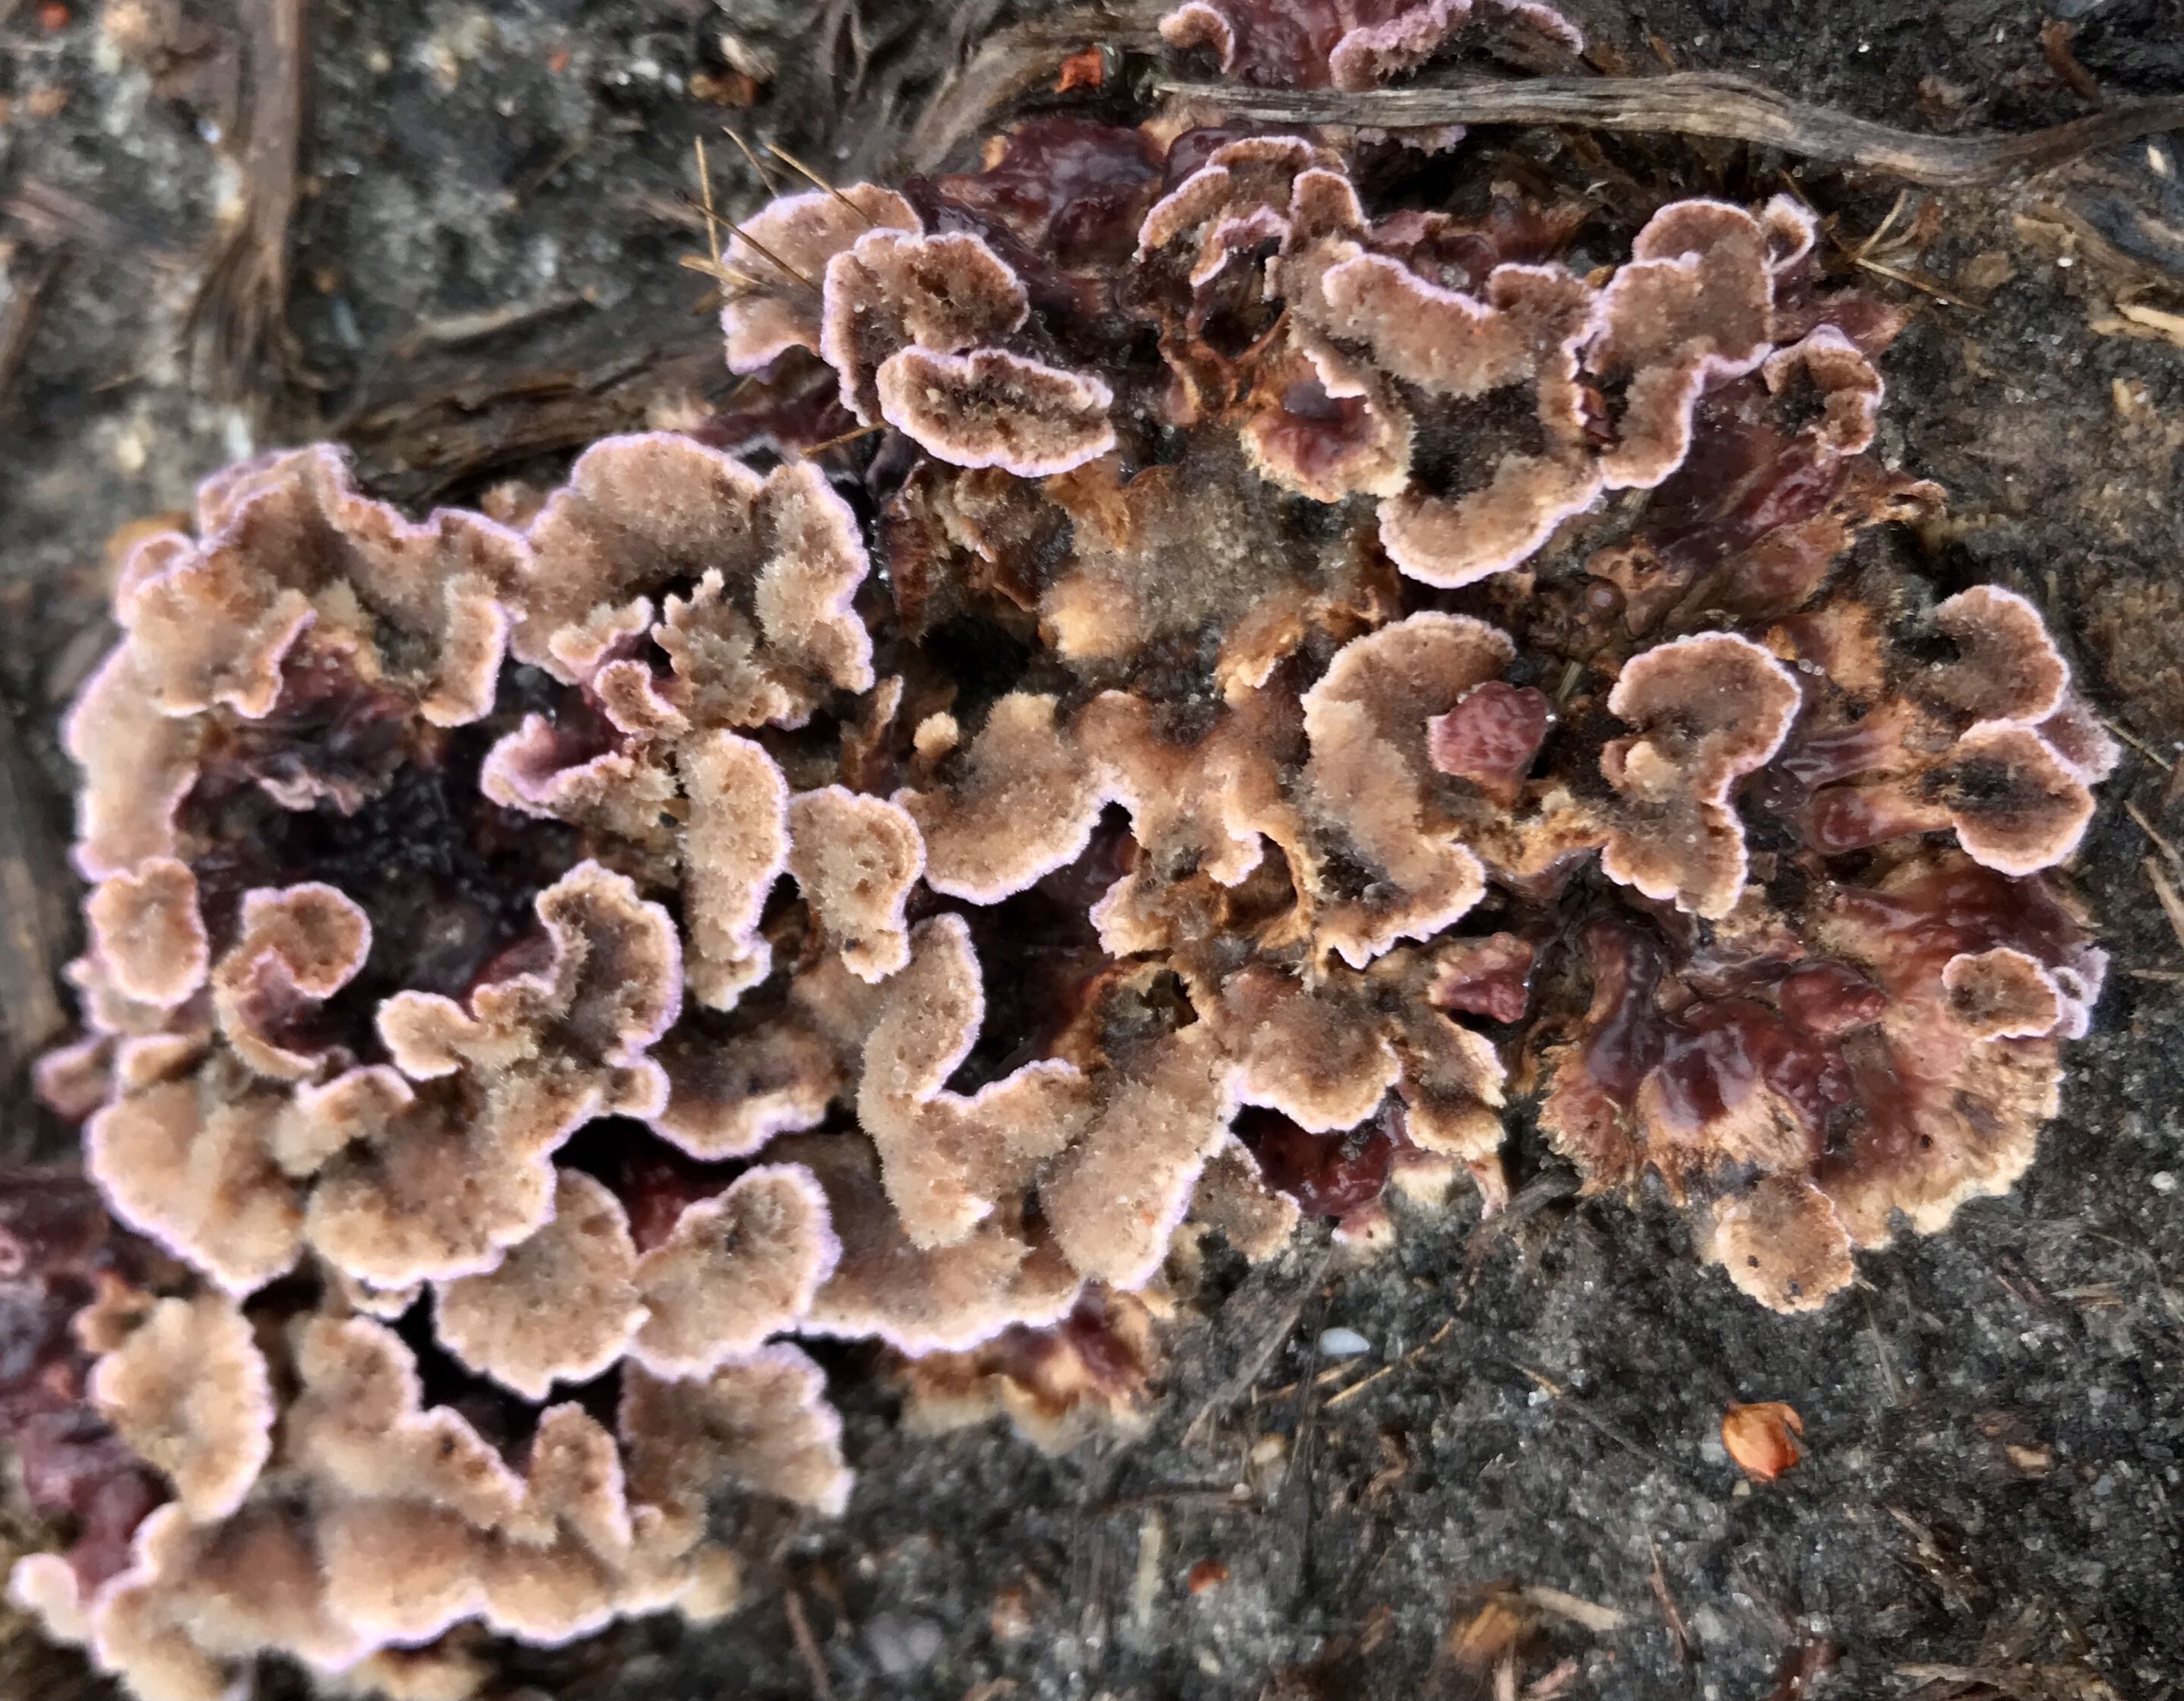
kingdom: Fungi
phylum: Basidiomycota
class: Agaricomycetes
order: Agaricales
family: Cyphellaceae
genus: Chondrostereum
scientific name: Chondrostereum purpureum
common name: purpurlædersvamp
